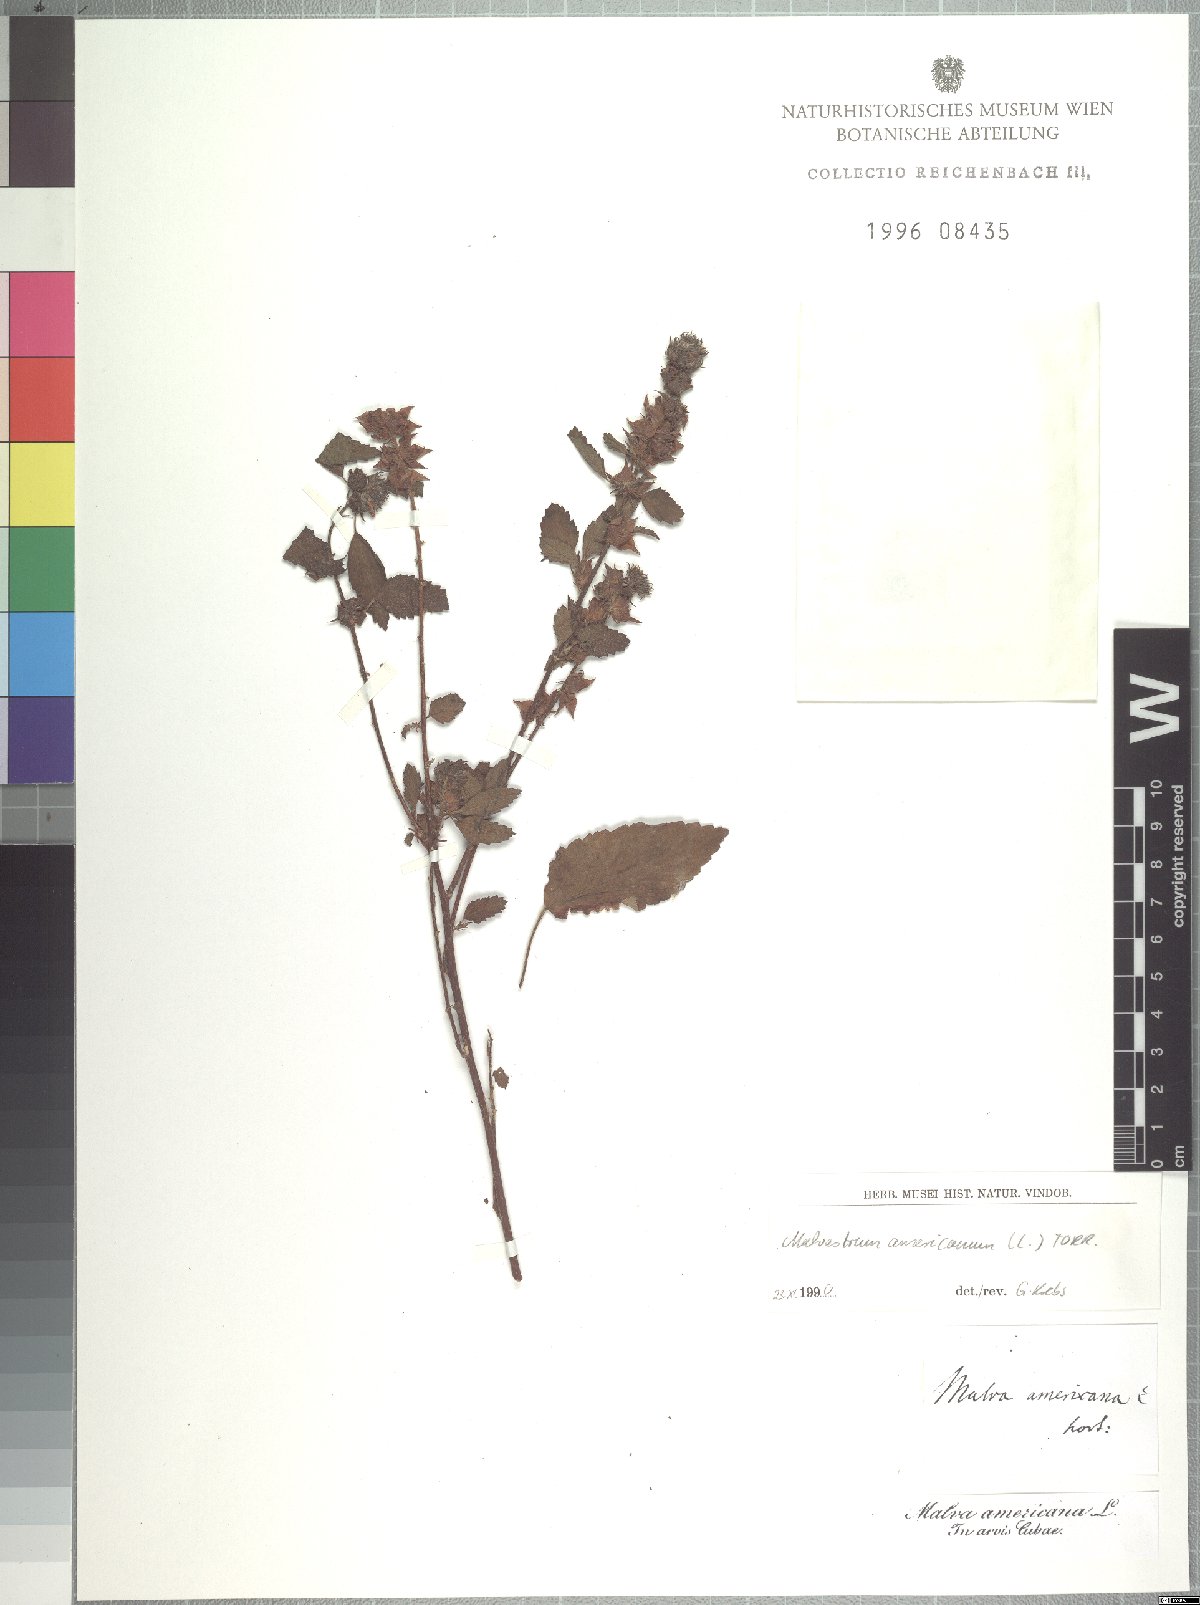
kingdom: Plantae
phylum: Tracheophyta
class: Magnoliopsida
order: Malvales
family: Malvaceae
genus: Malvastrum
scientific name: Malvastrum americanum
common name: Spiked malvastrum
